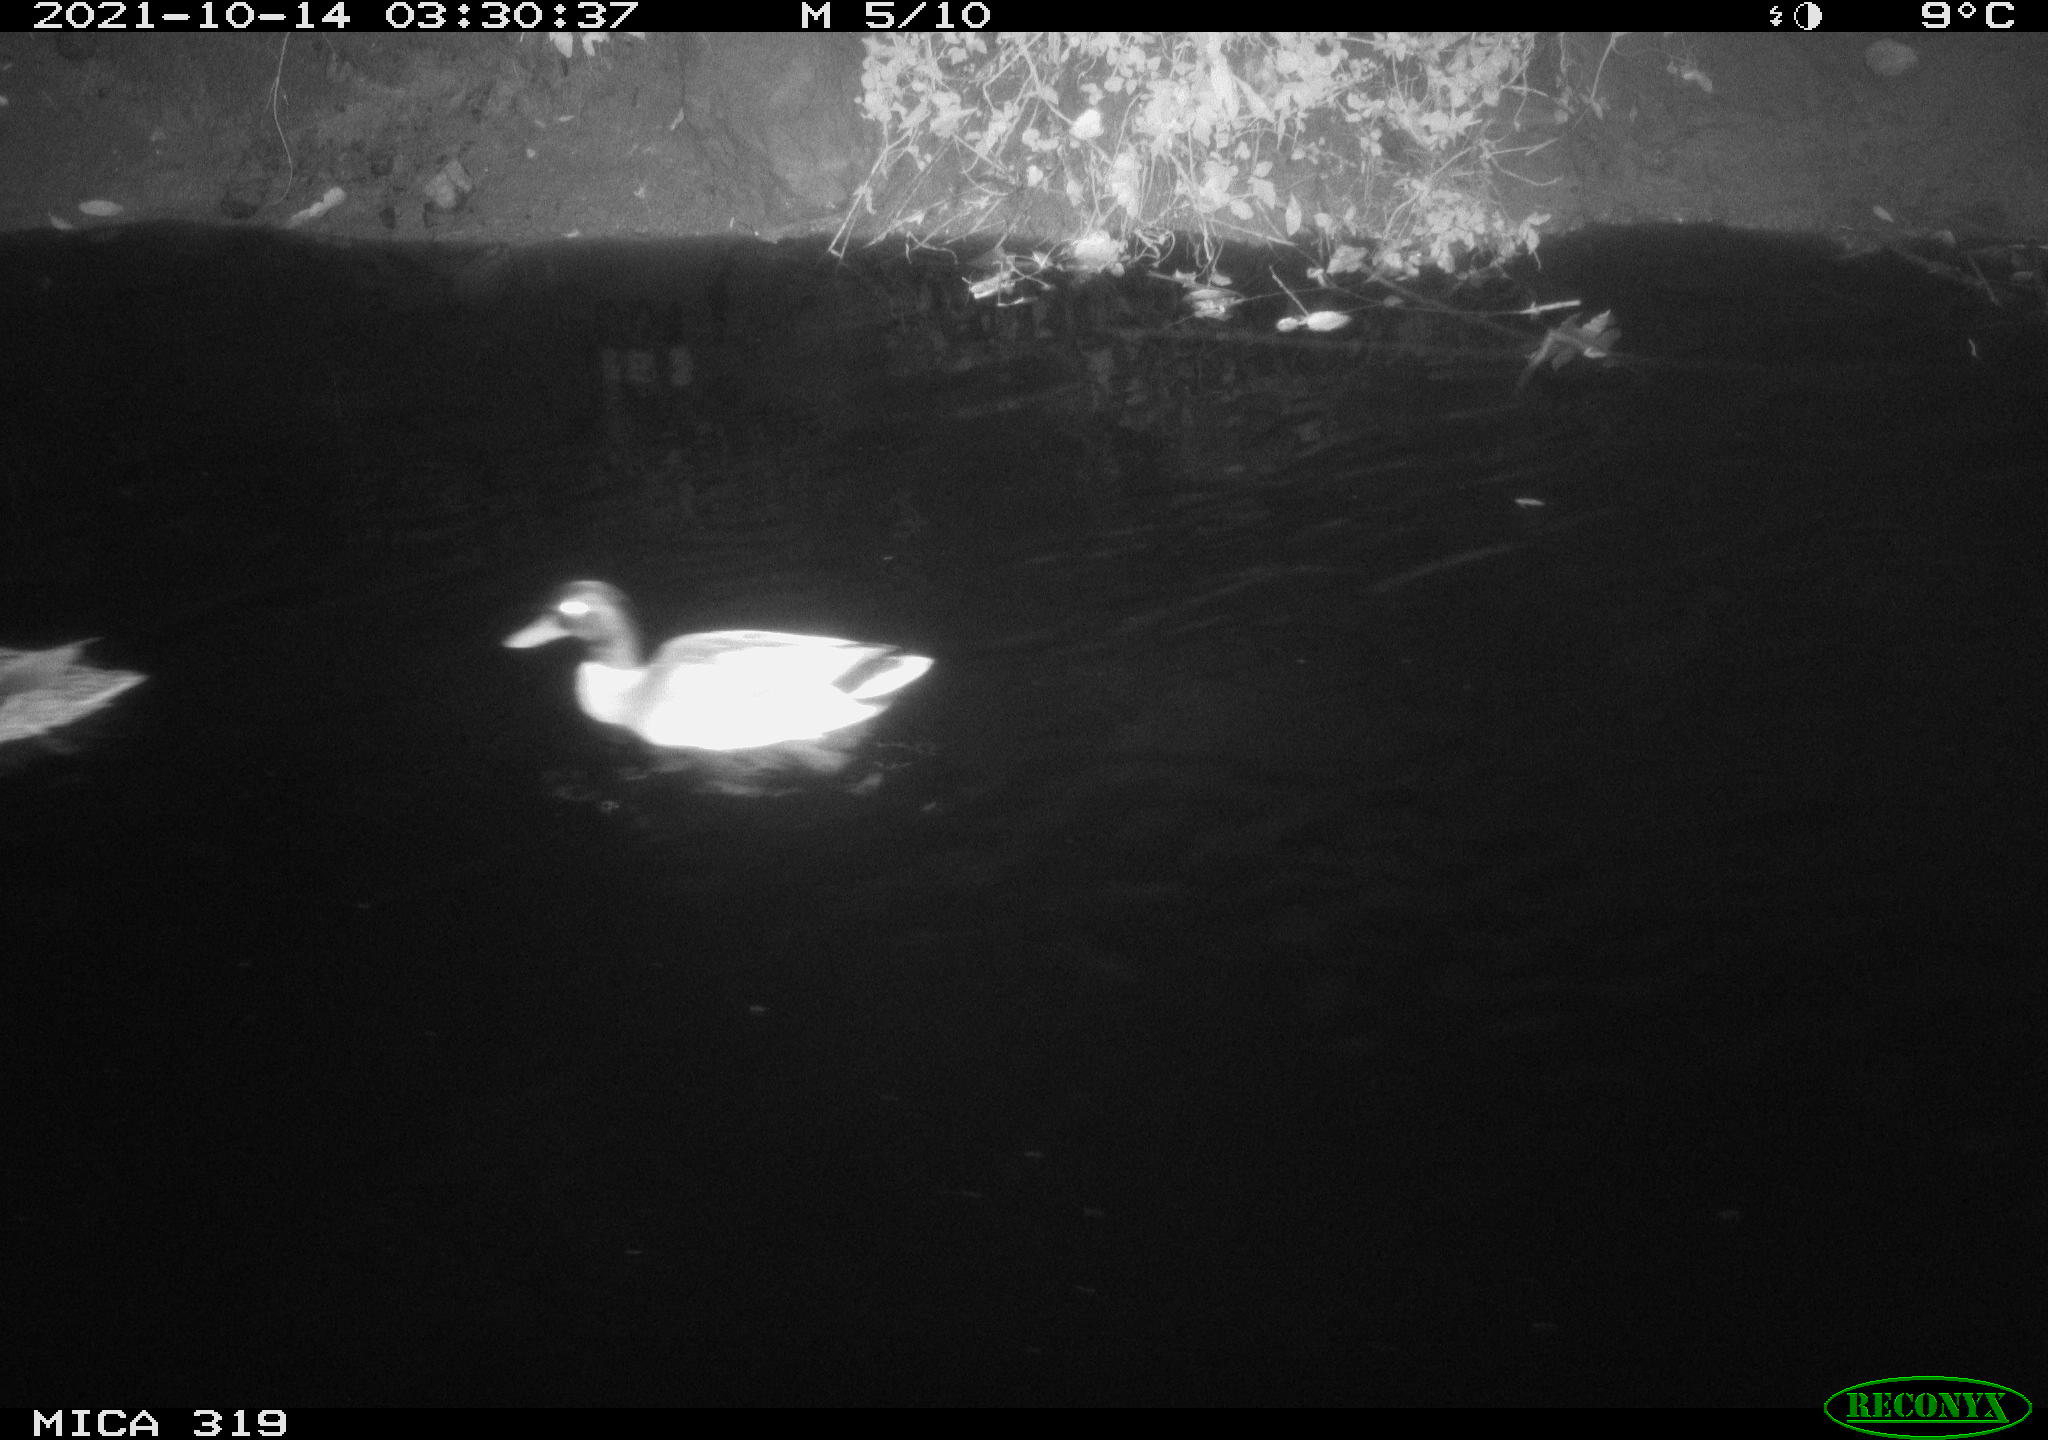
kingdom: Animalia
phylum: Chordata
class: Aves
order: Anseriformes
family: Anatidae
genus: Anas
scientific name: Anas platyrhynchos
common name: Mallard
